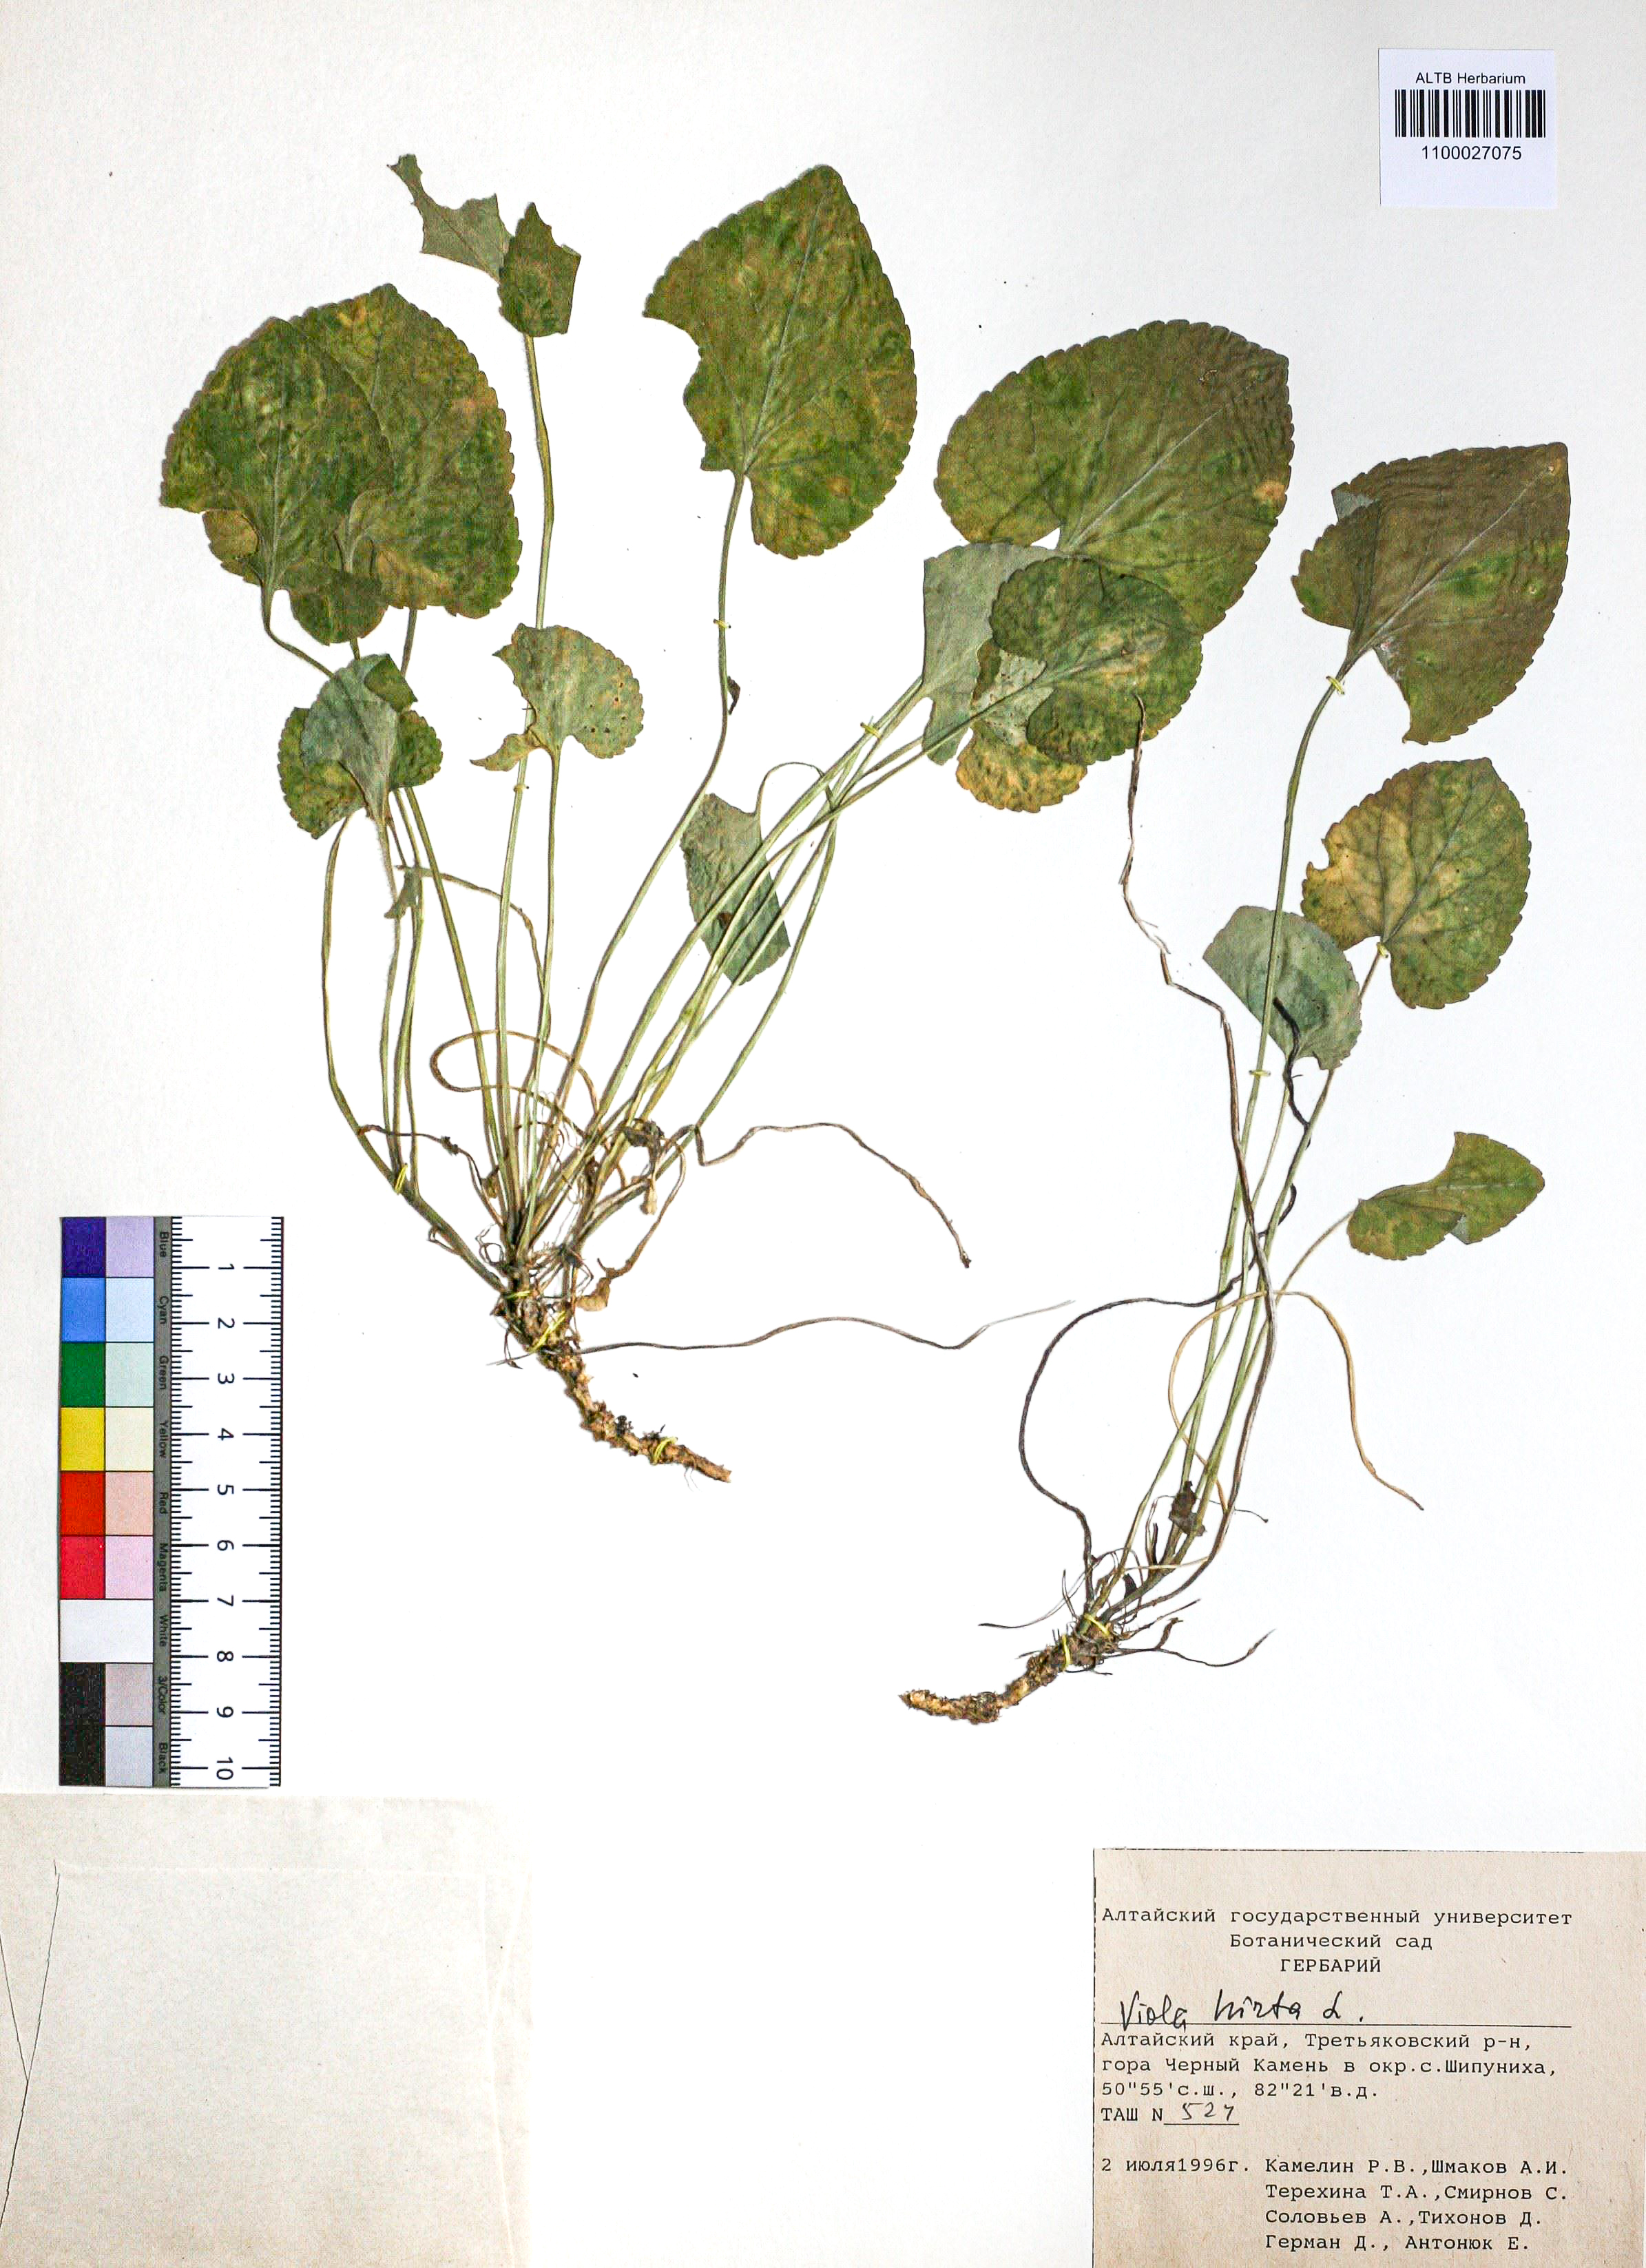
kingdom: Plantae
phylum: Tracheophyta
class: Magnoliopsida
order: Malpighiales
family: Violaceae
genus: Viola
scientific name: Viola hirta
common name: Hairy violet
